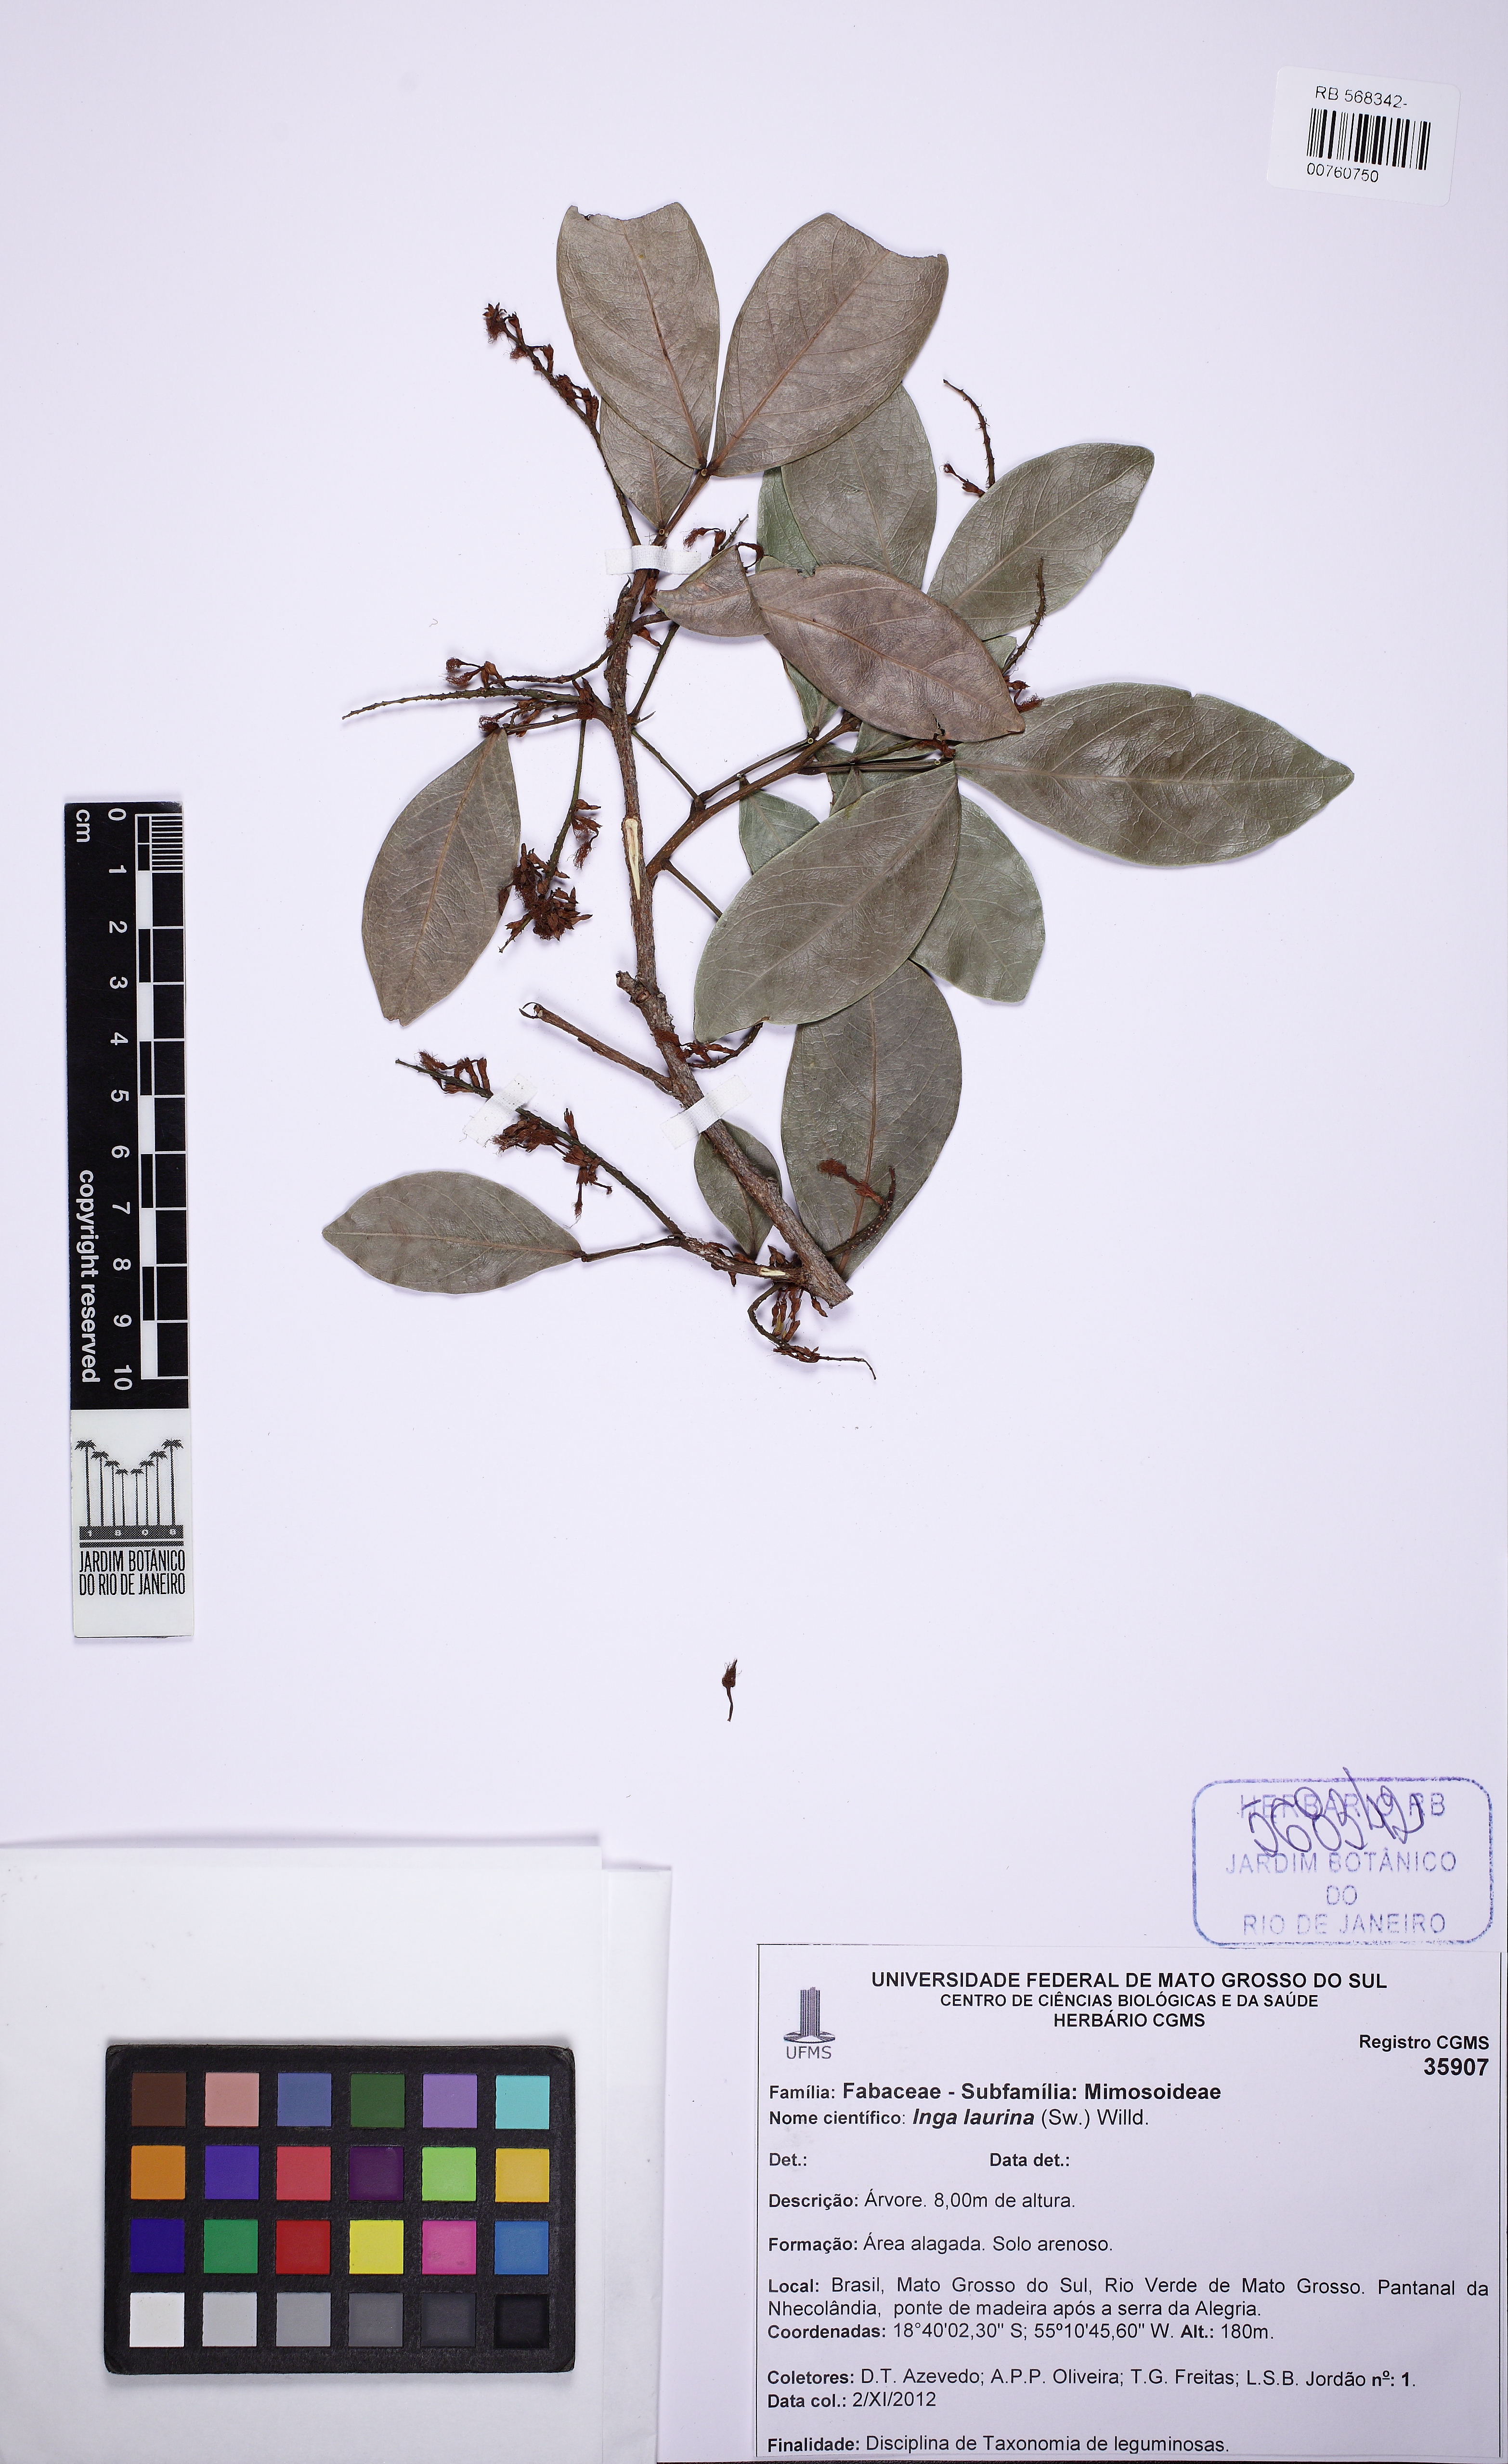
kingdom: Plantae
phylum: Tracheophyta
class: Magnoliopsida
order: Fabales
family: Fabaceae
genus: Inga
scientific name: Inga laurina
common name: Red wood
